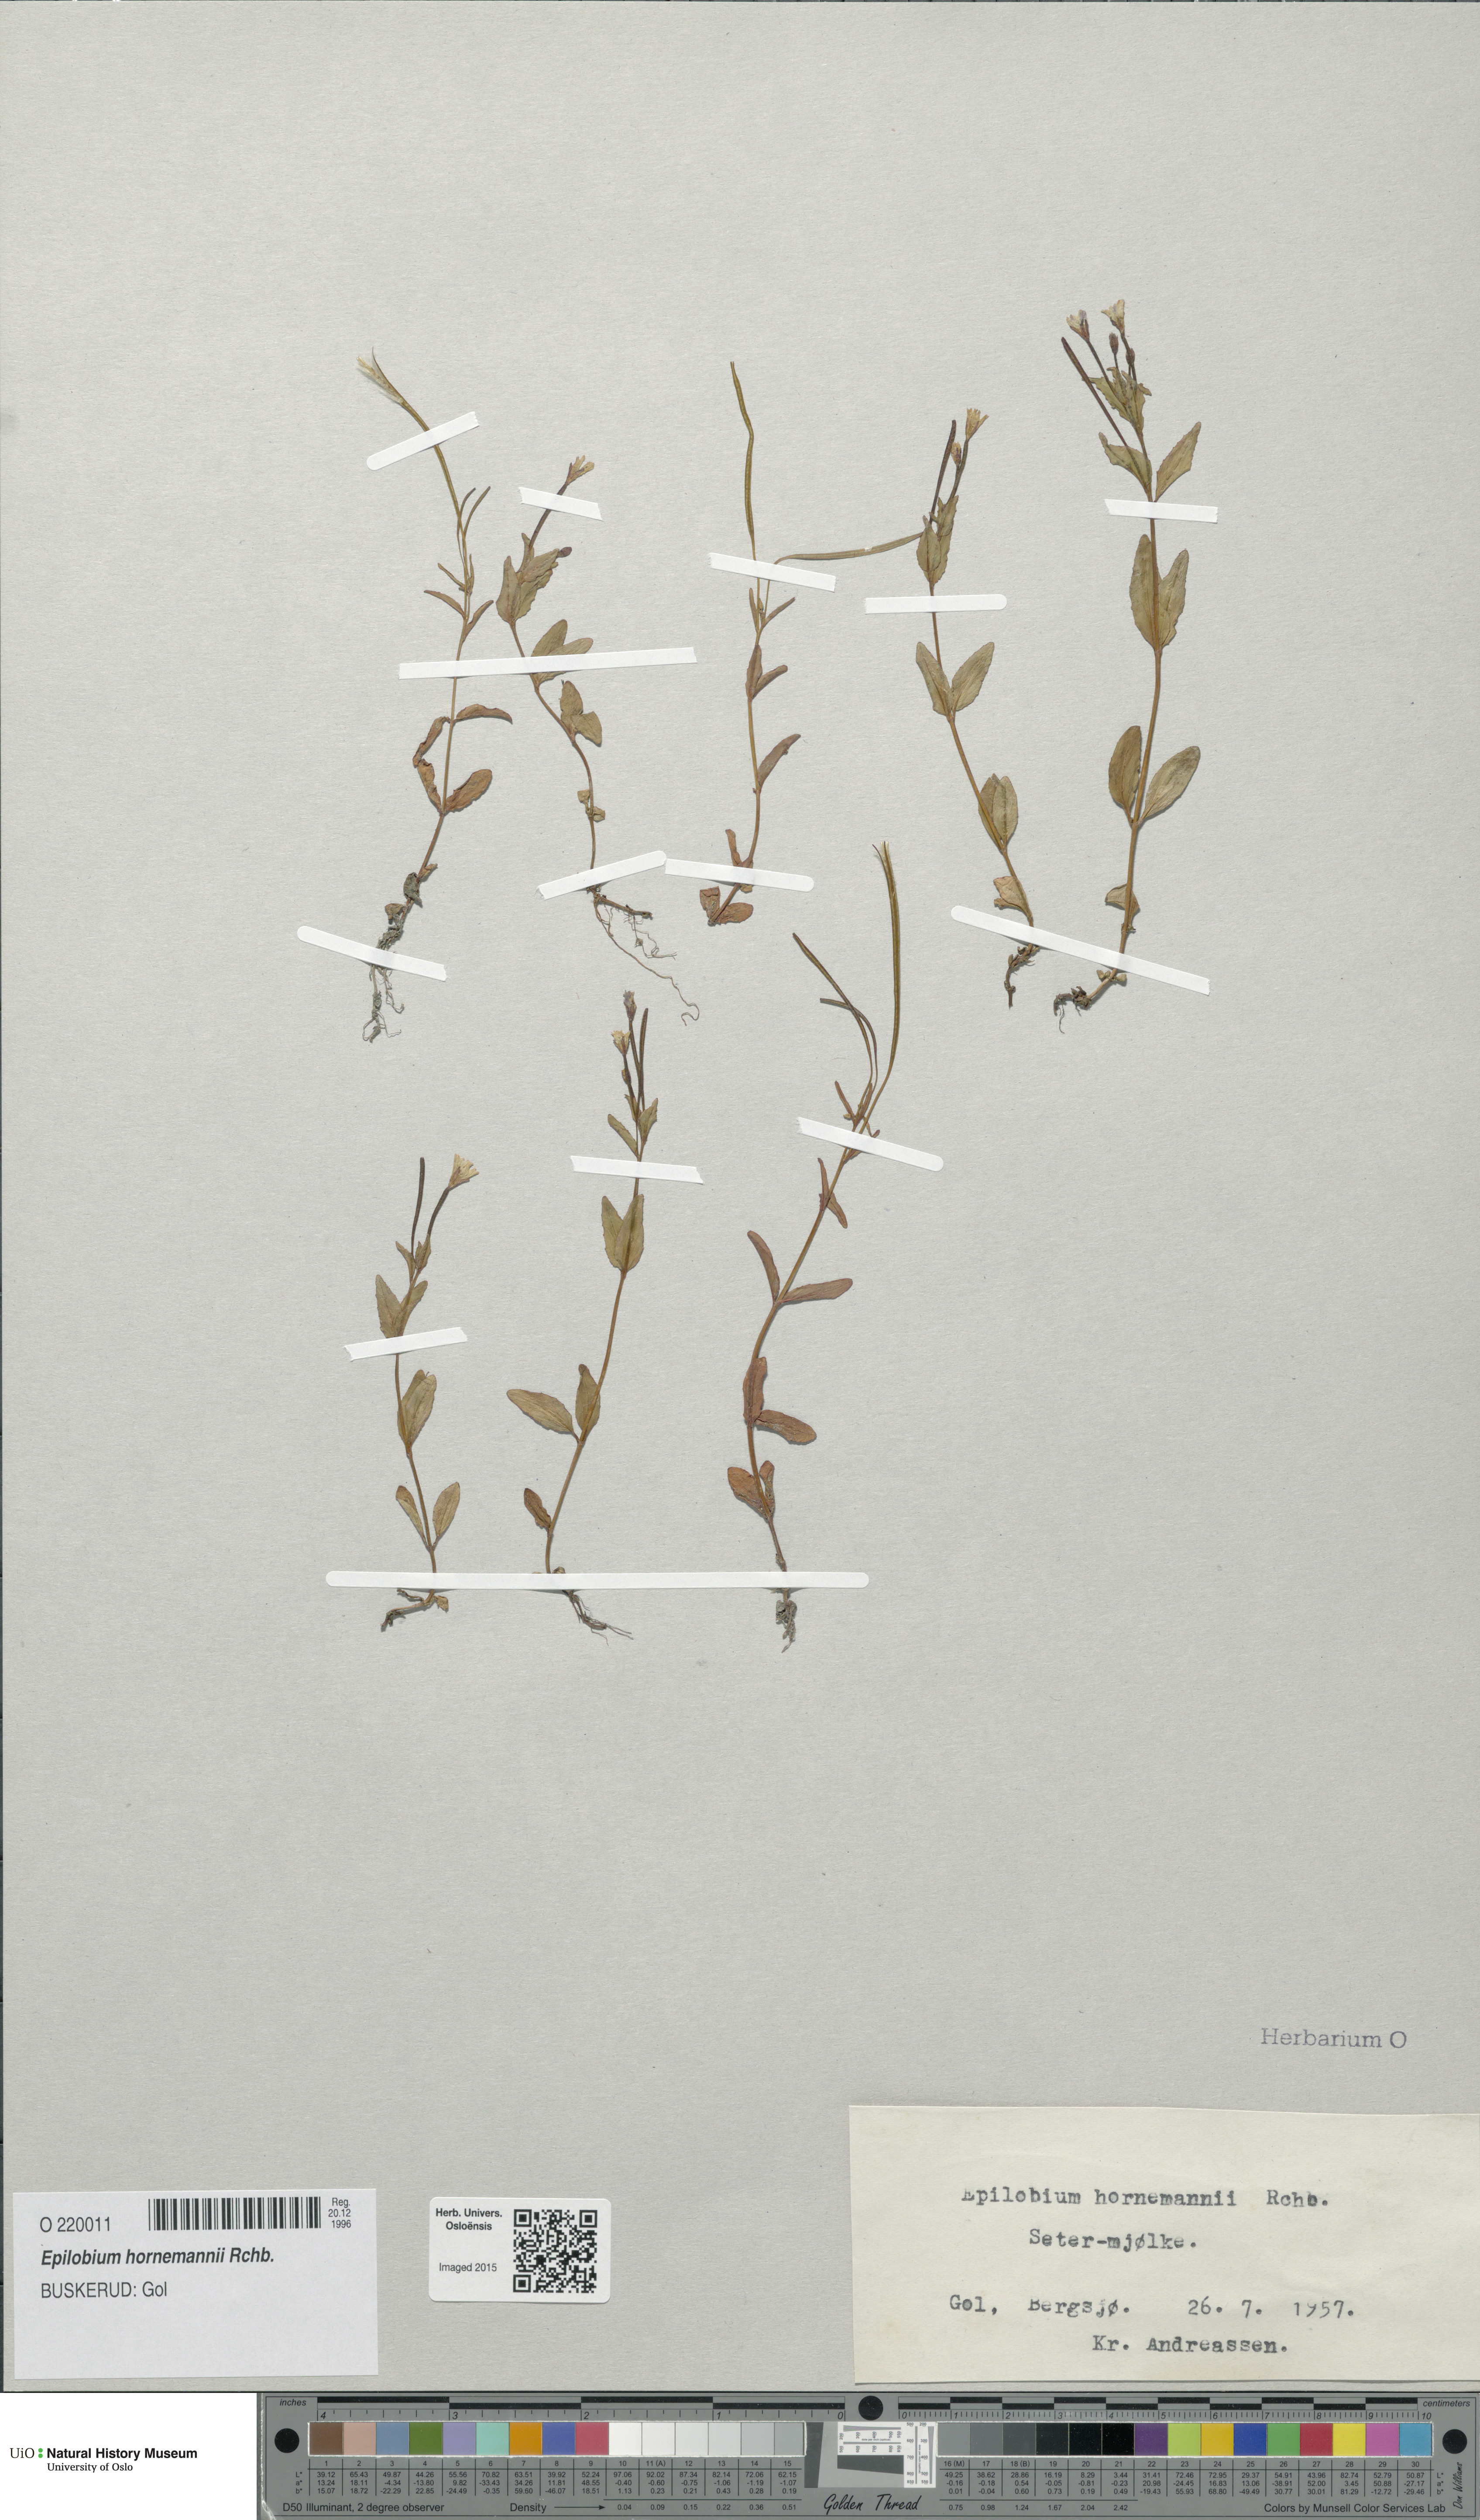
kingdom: Plantae
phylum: Tracheophyta
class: Magnoliopsida
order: Myrtales
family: Onagraceae
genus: Epilobium
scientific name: Epilobium hornemannii
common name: Hornemann's willowherb
